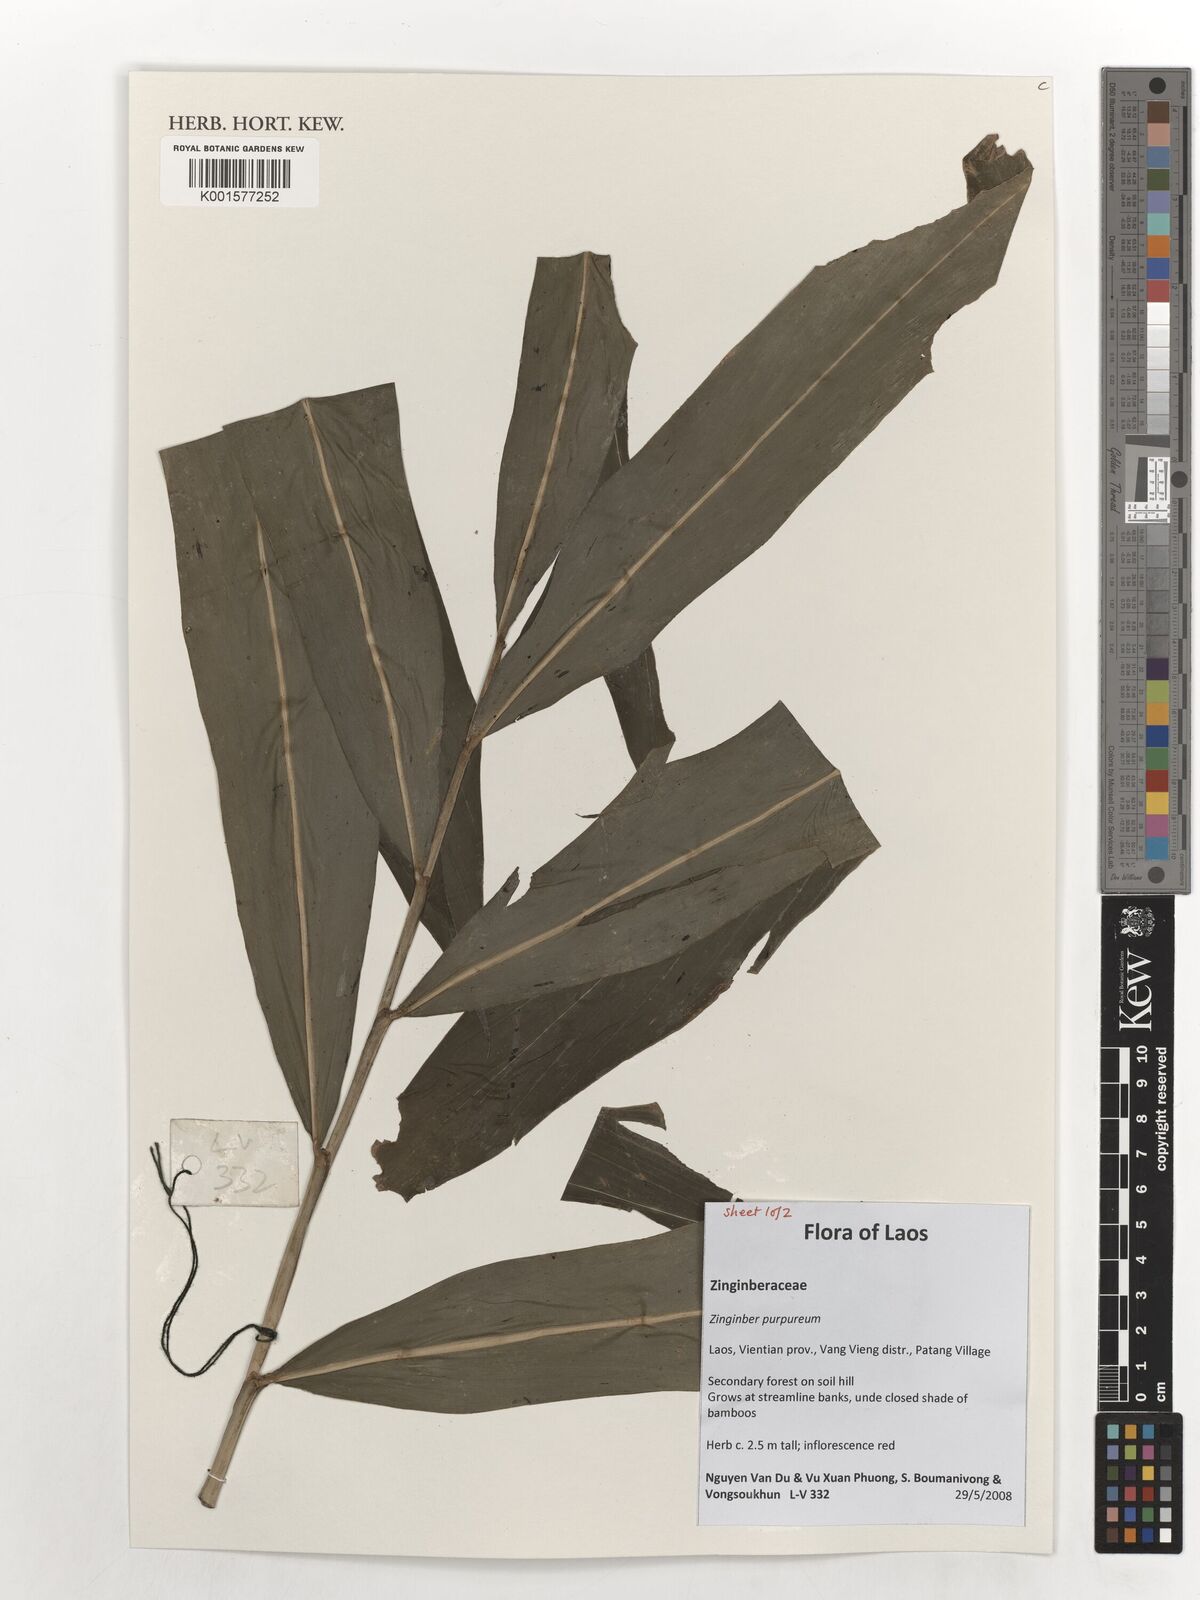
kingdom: Plantae
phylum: Tracheophyta
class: Liliopsida
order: Zingiberales
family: Zingiberaceae
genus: Zingiber
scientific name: Zingiber purpureum
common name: Cassumunar ginger
